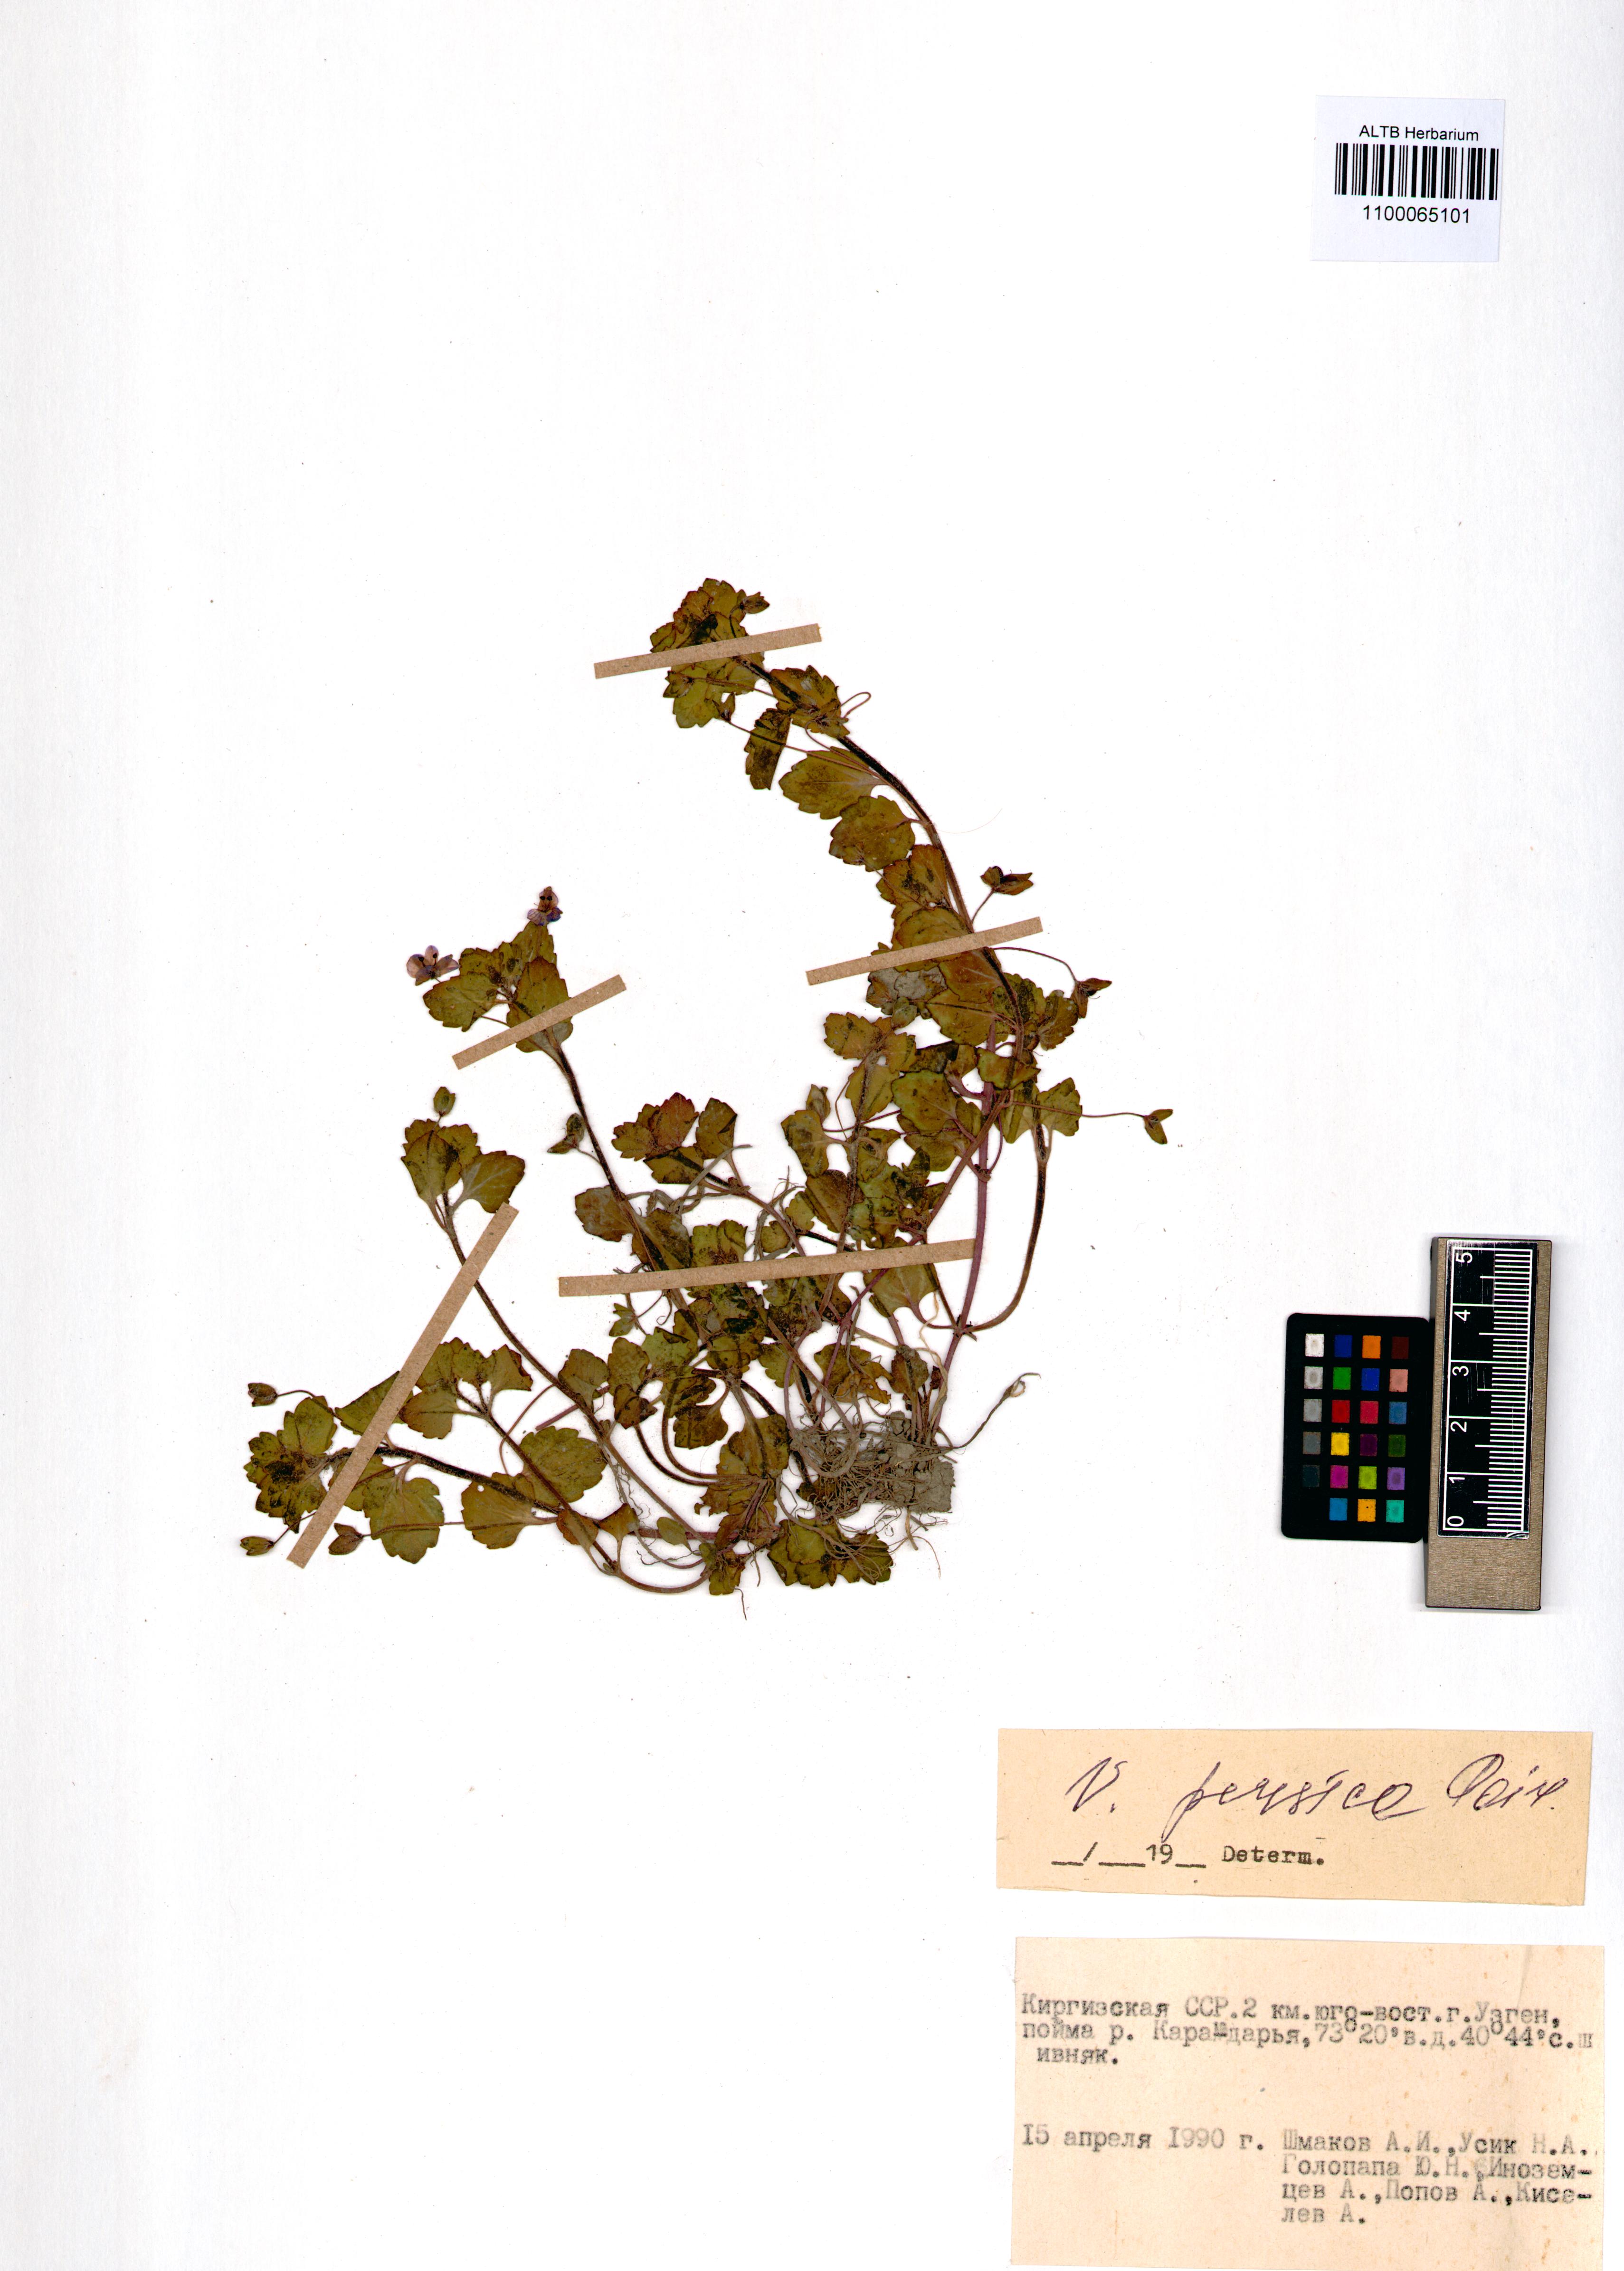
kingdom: Plantae
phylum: Tracheophyta
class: Magnoliopsida
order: Lamiales
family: Plantaginaceae
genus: Veronica
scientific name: Veronica persica
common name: Common field-speedwell
